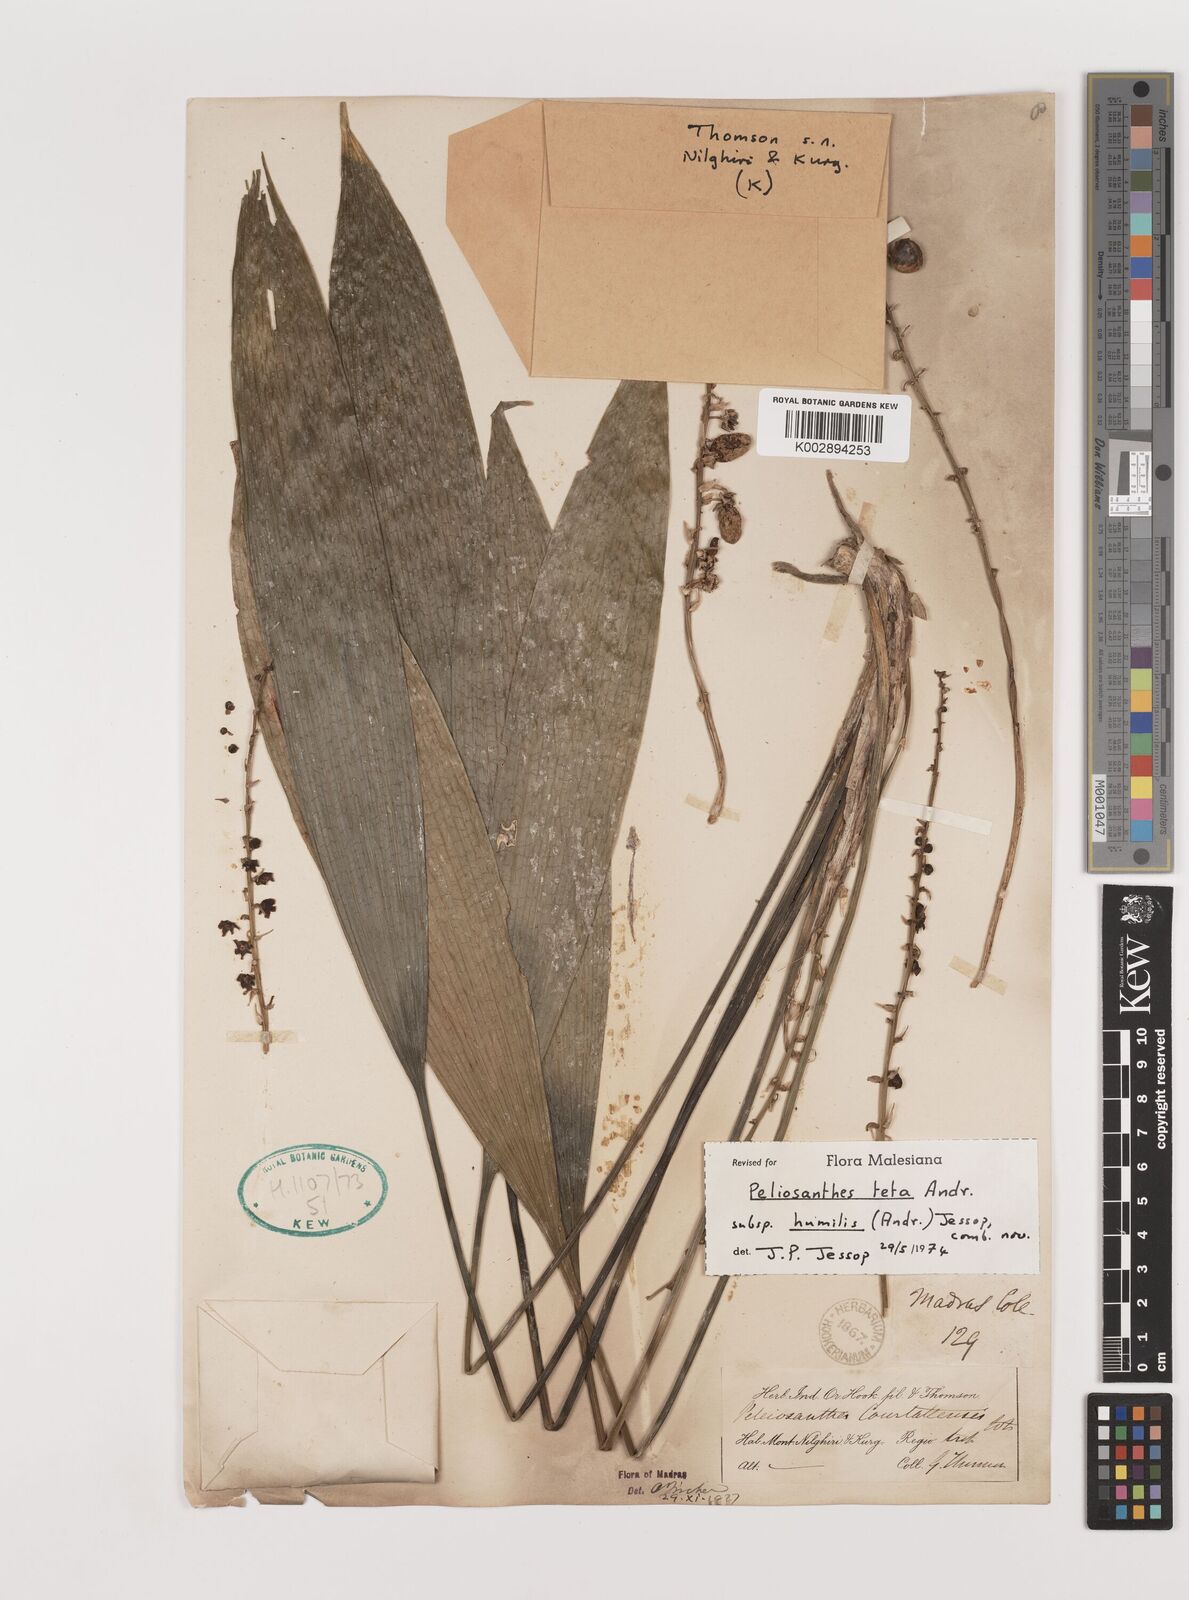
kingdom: Plantae
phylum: Tracheophyta
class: Liliopsida
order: Asparagales
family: Asparagaceae
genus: Peliosanthes
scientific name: Peliosanthes teta
